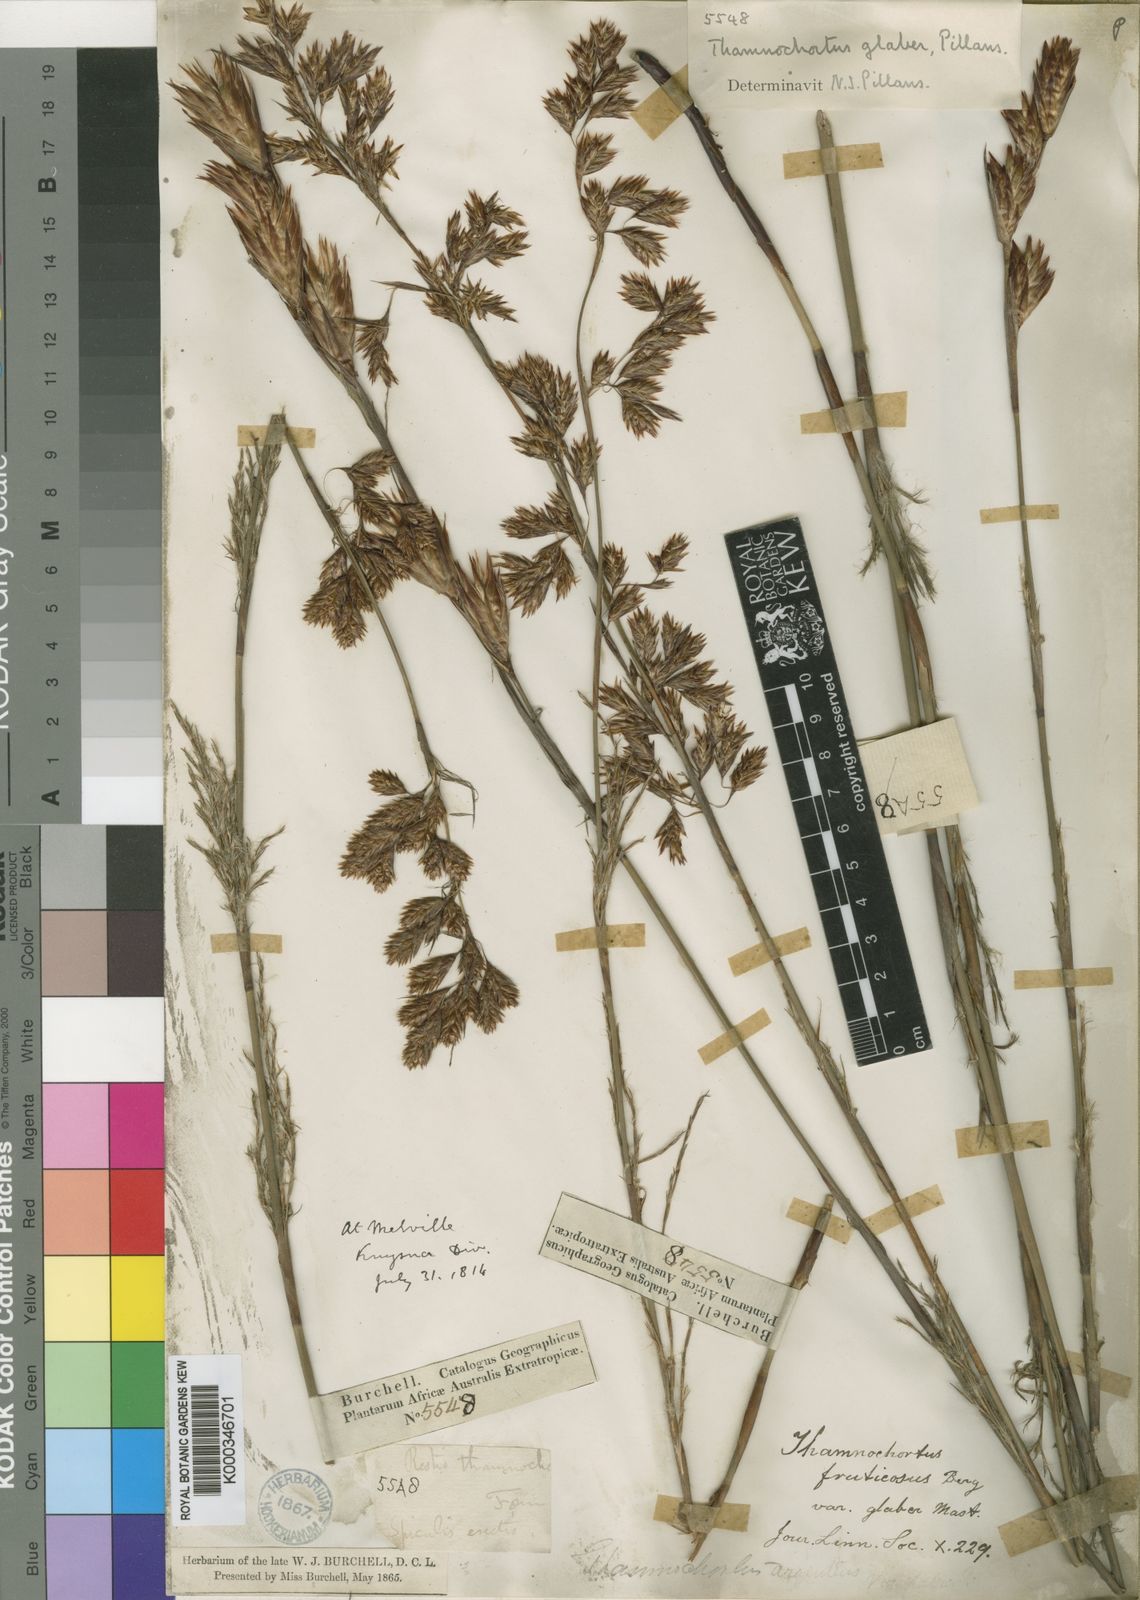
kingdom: Plantae
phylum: Tracheophyta
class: Liliopsida
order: Poales
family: Restionaceae
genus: Thamnochortus
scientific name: Thamnochortus glaber
